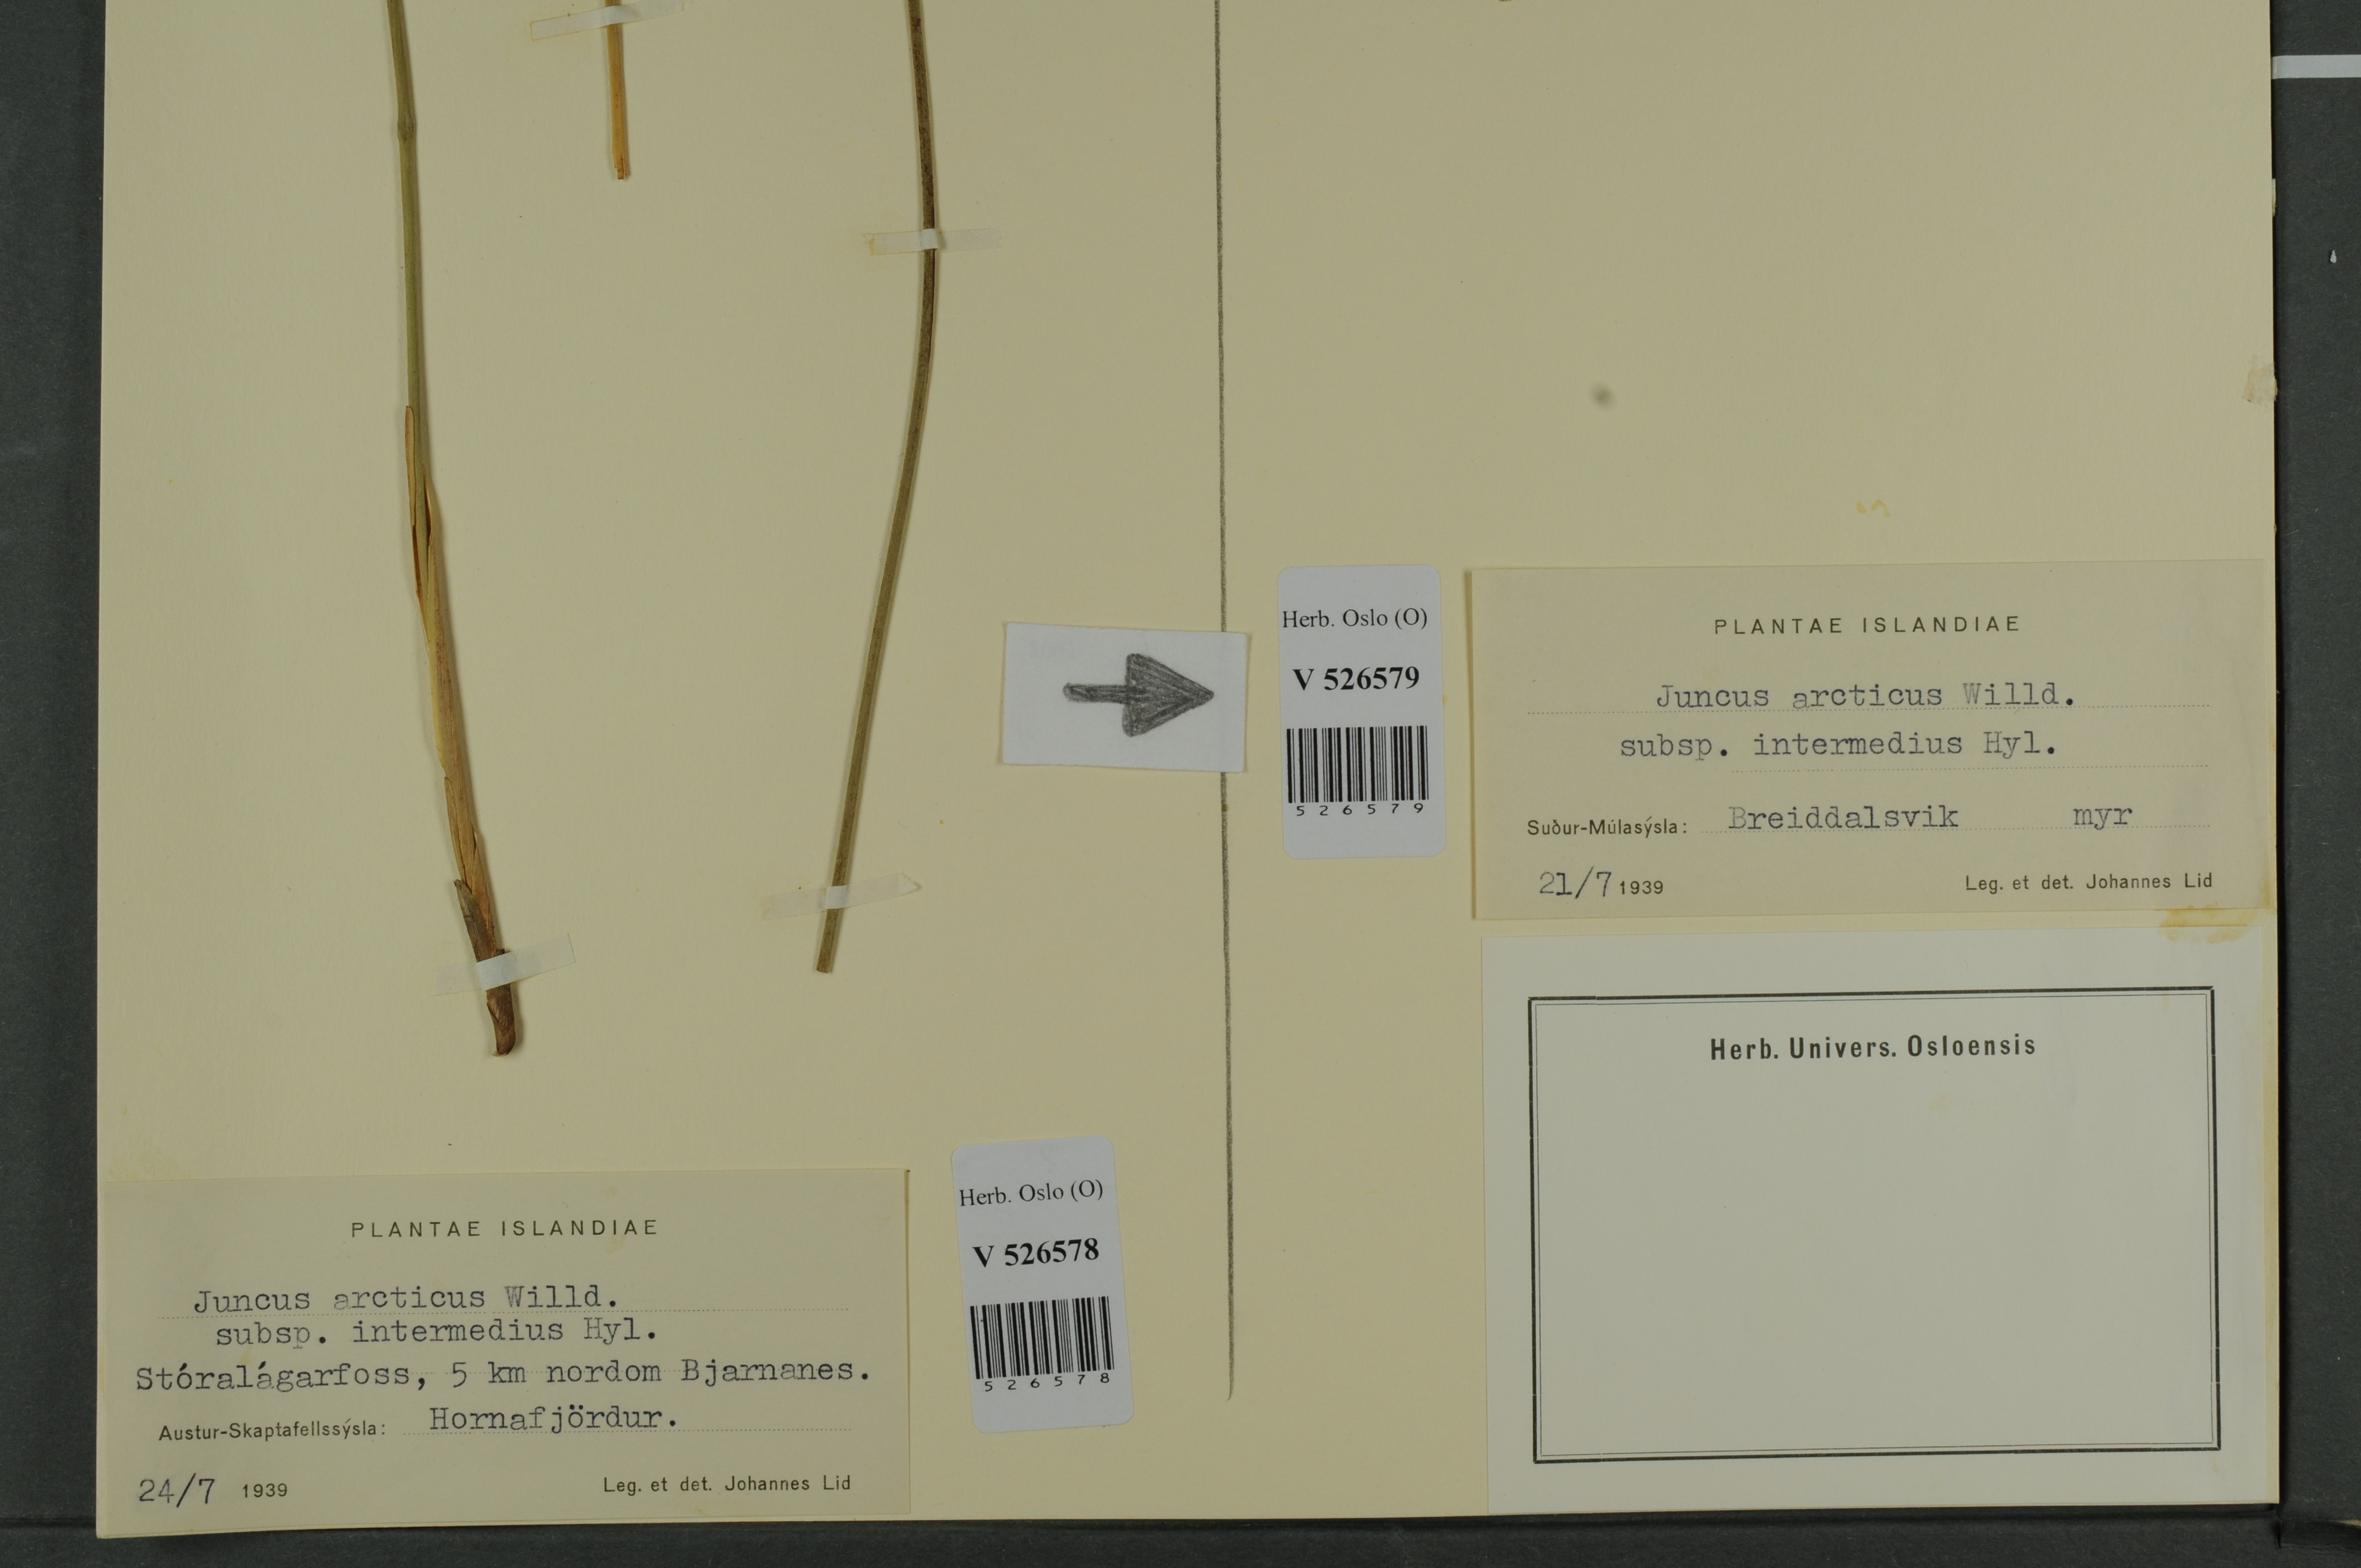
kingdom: Plantae
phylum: Tracheophyta
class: Liliopsida
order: Poales
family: Juncaceae
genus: Juncus
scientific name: Juncus arcticus
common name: Arctic rush
